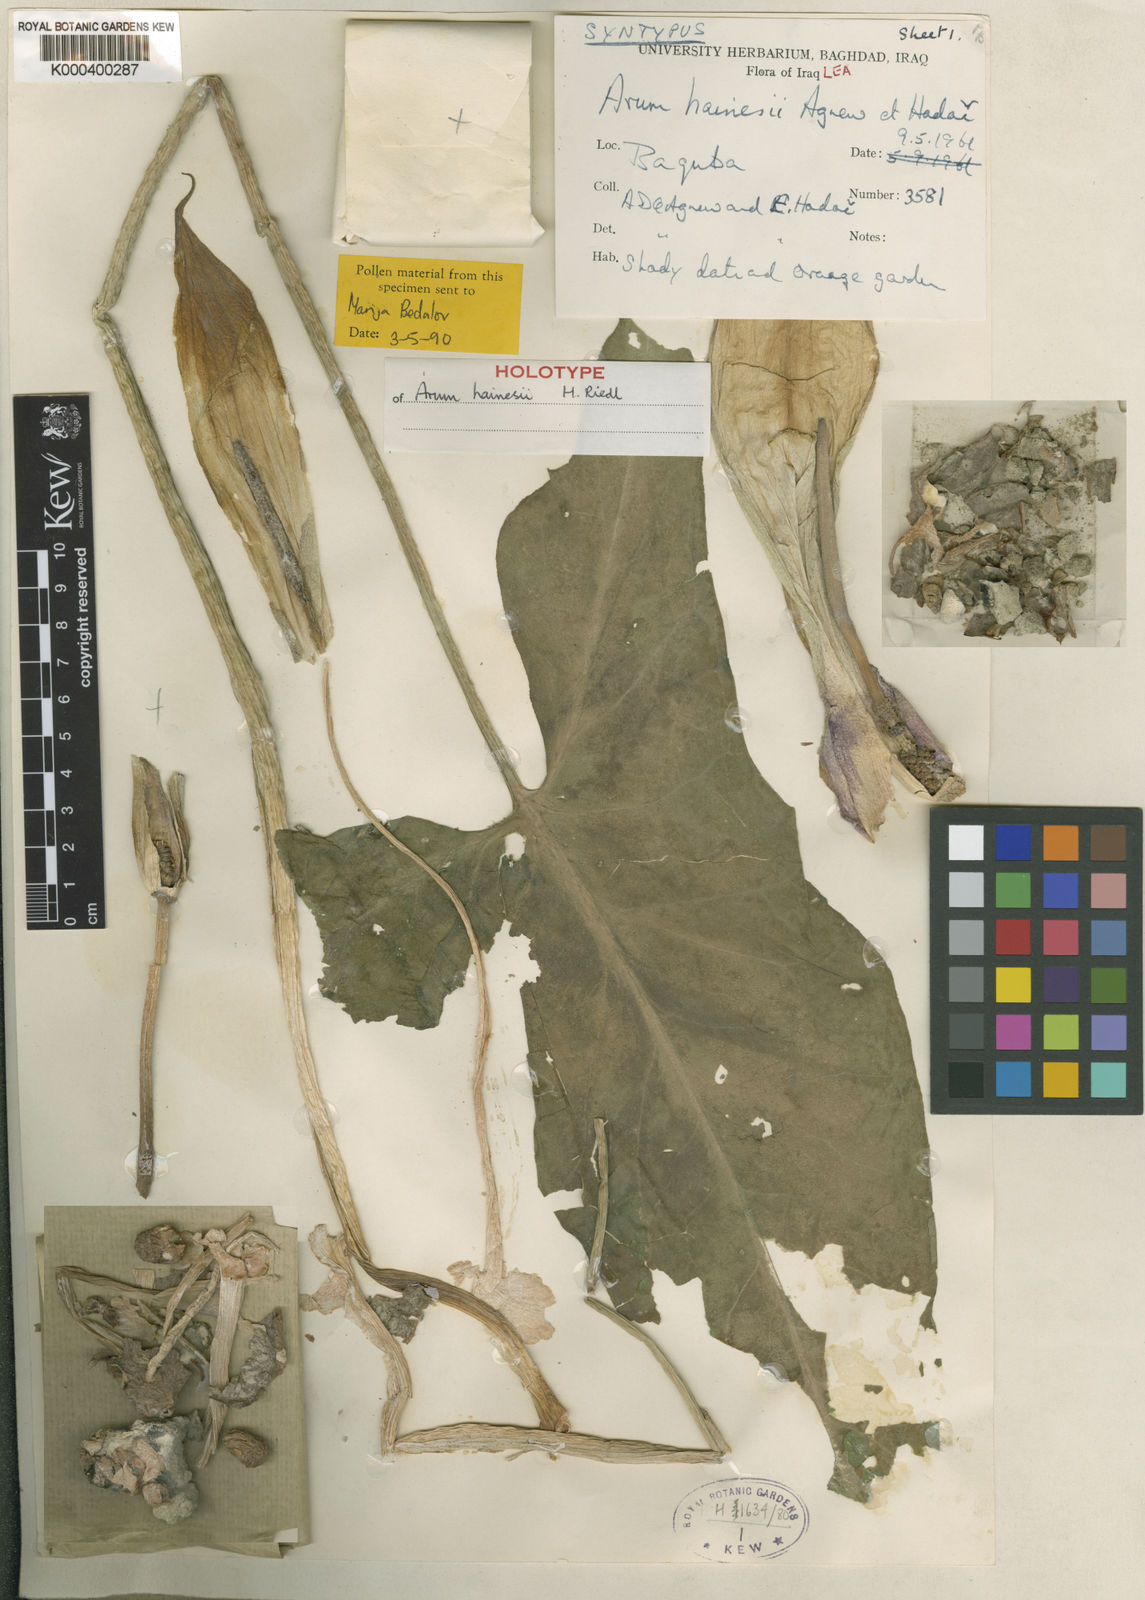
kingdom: Plantae
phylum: Tracheophyta
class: Liliopsida
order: Alismatales
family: Araceae
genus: Arum
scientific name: Arum hainesii
